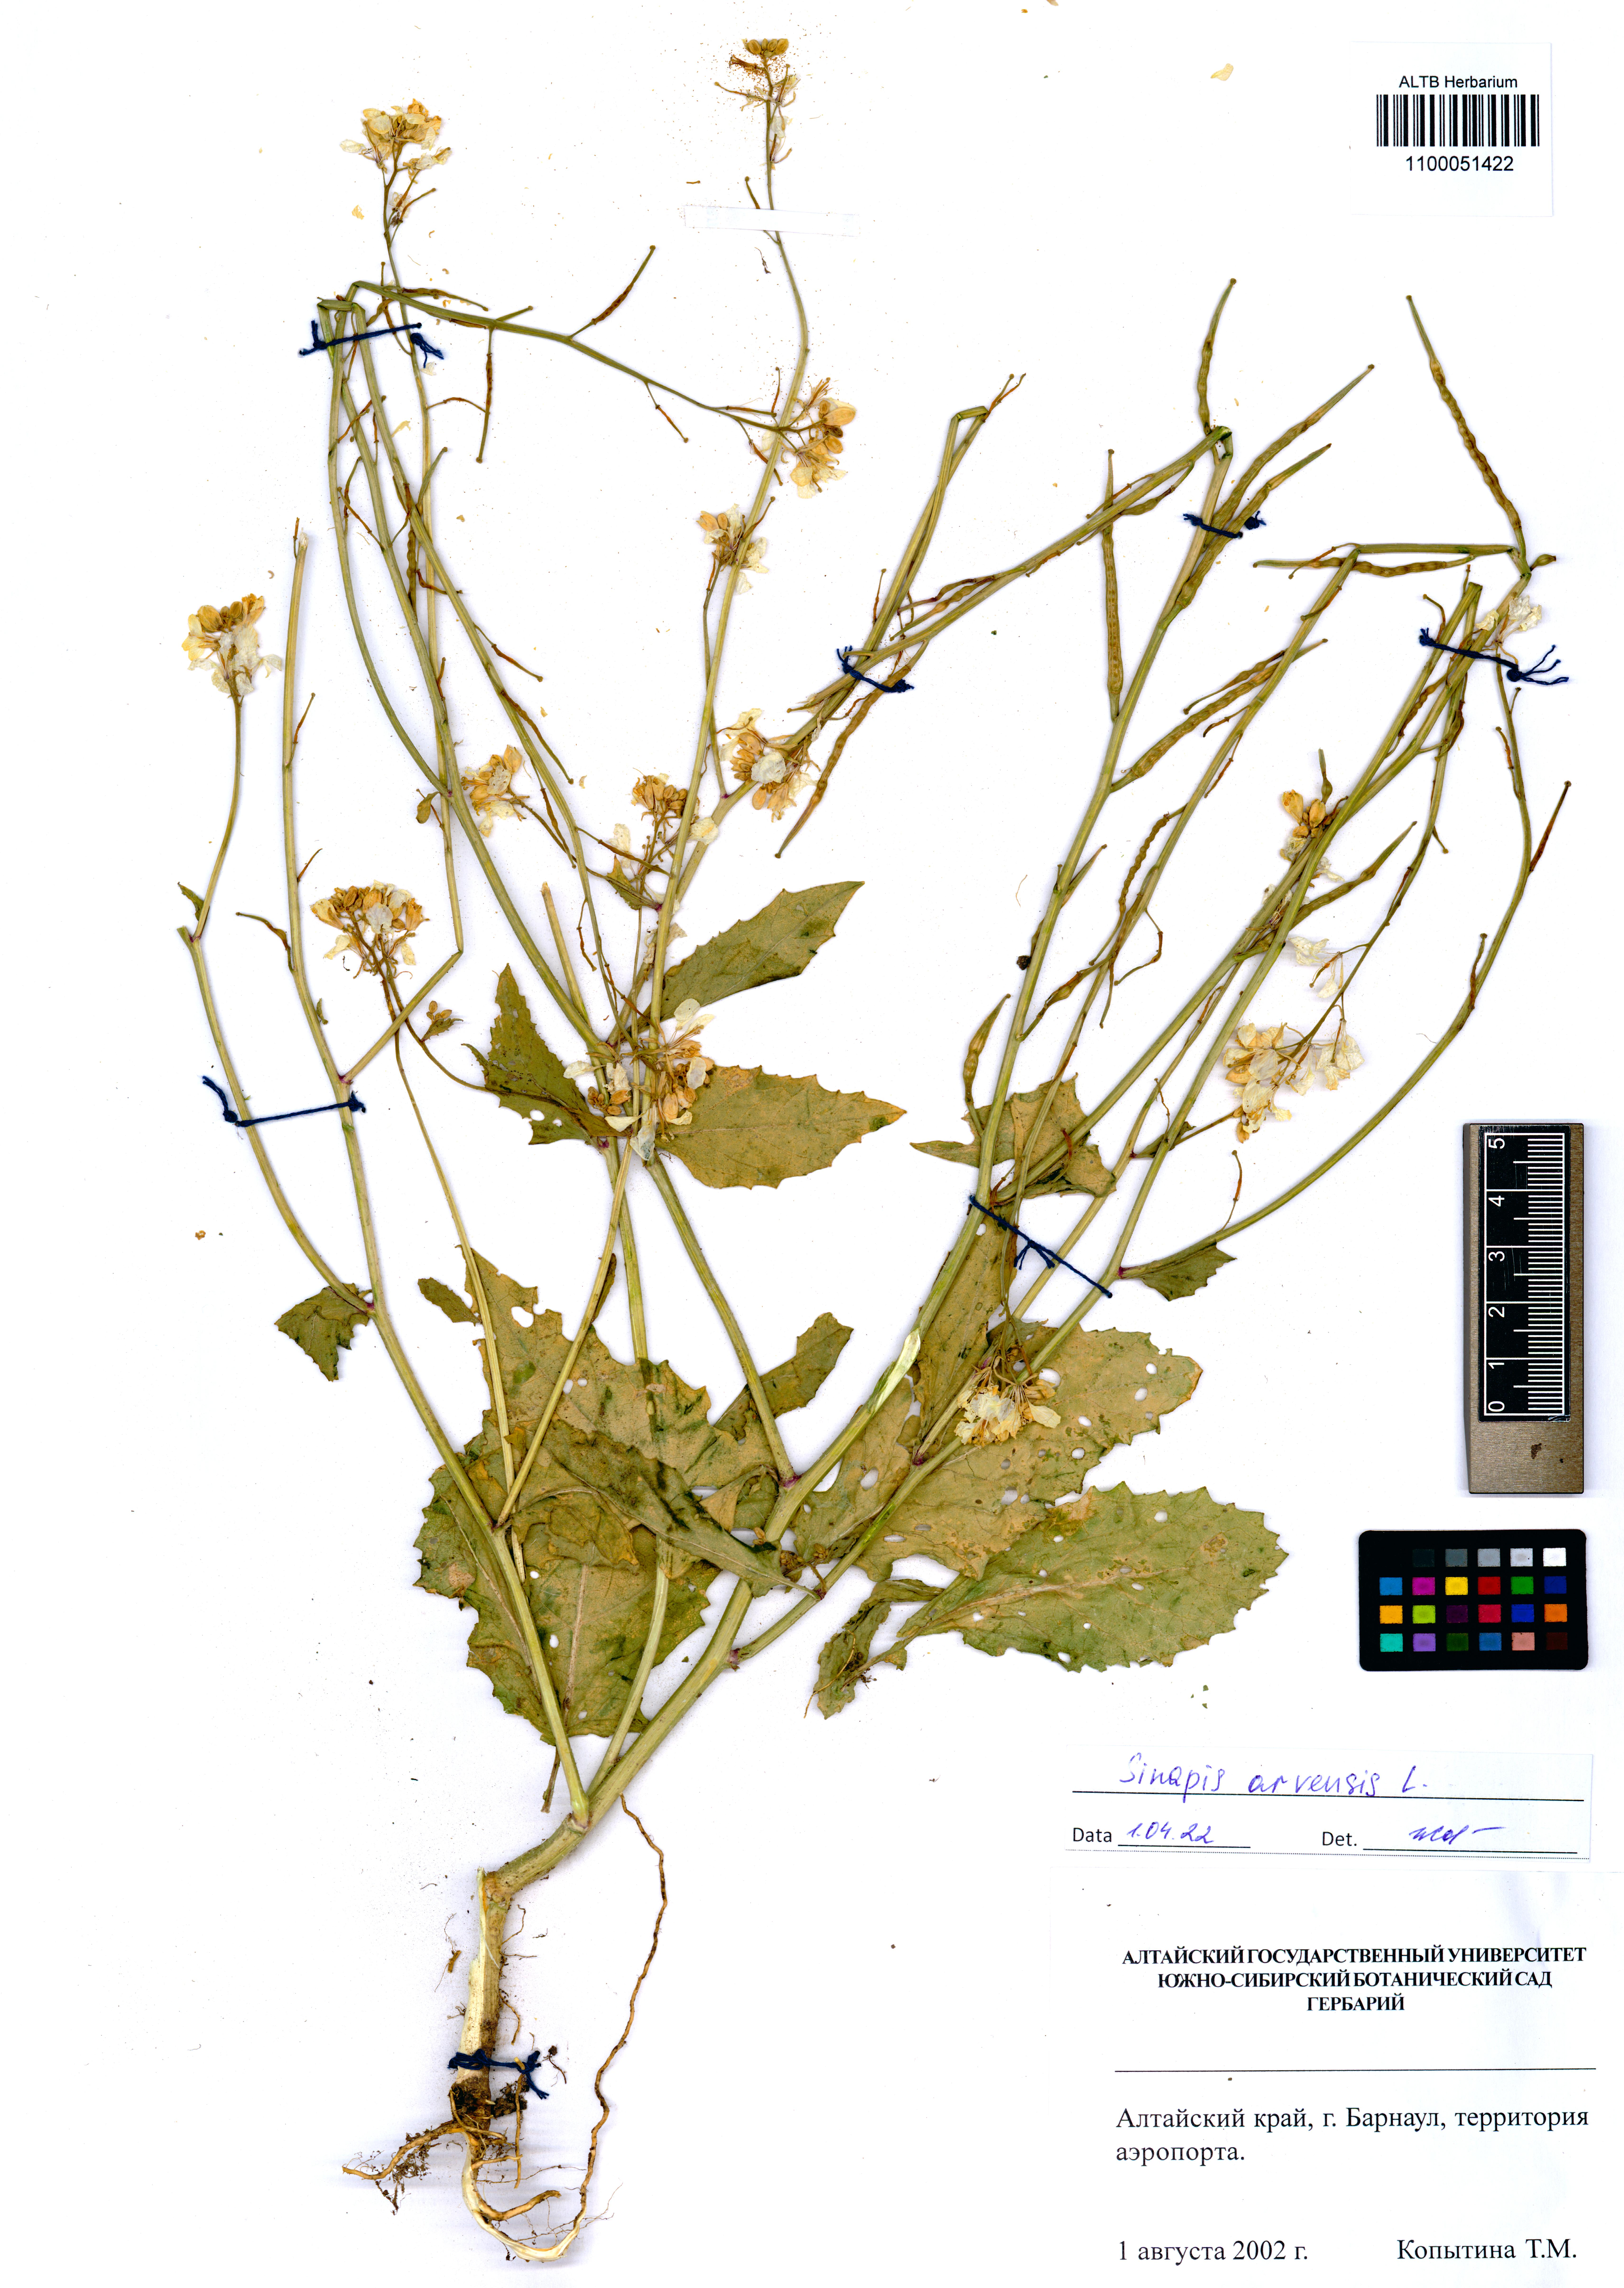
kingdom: Plantae
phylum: Tracheophyta
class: Magnoliopsida
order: Brassicales
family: Brassicaceae
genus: Sinapis
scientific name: Sinapis arvensis
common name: Charlock
